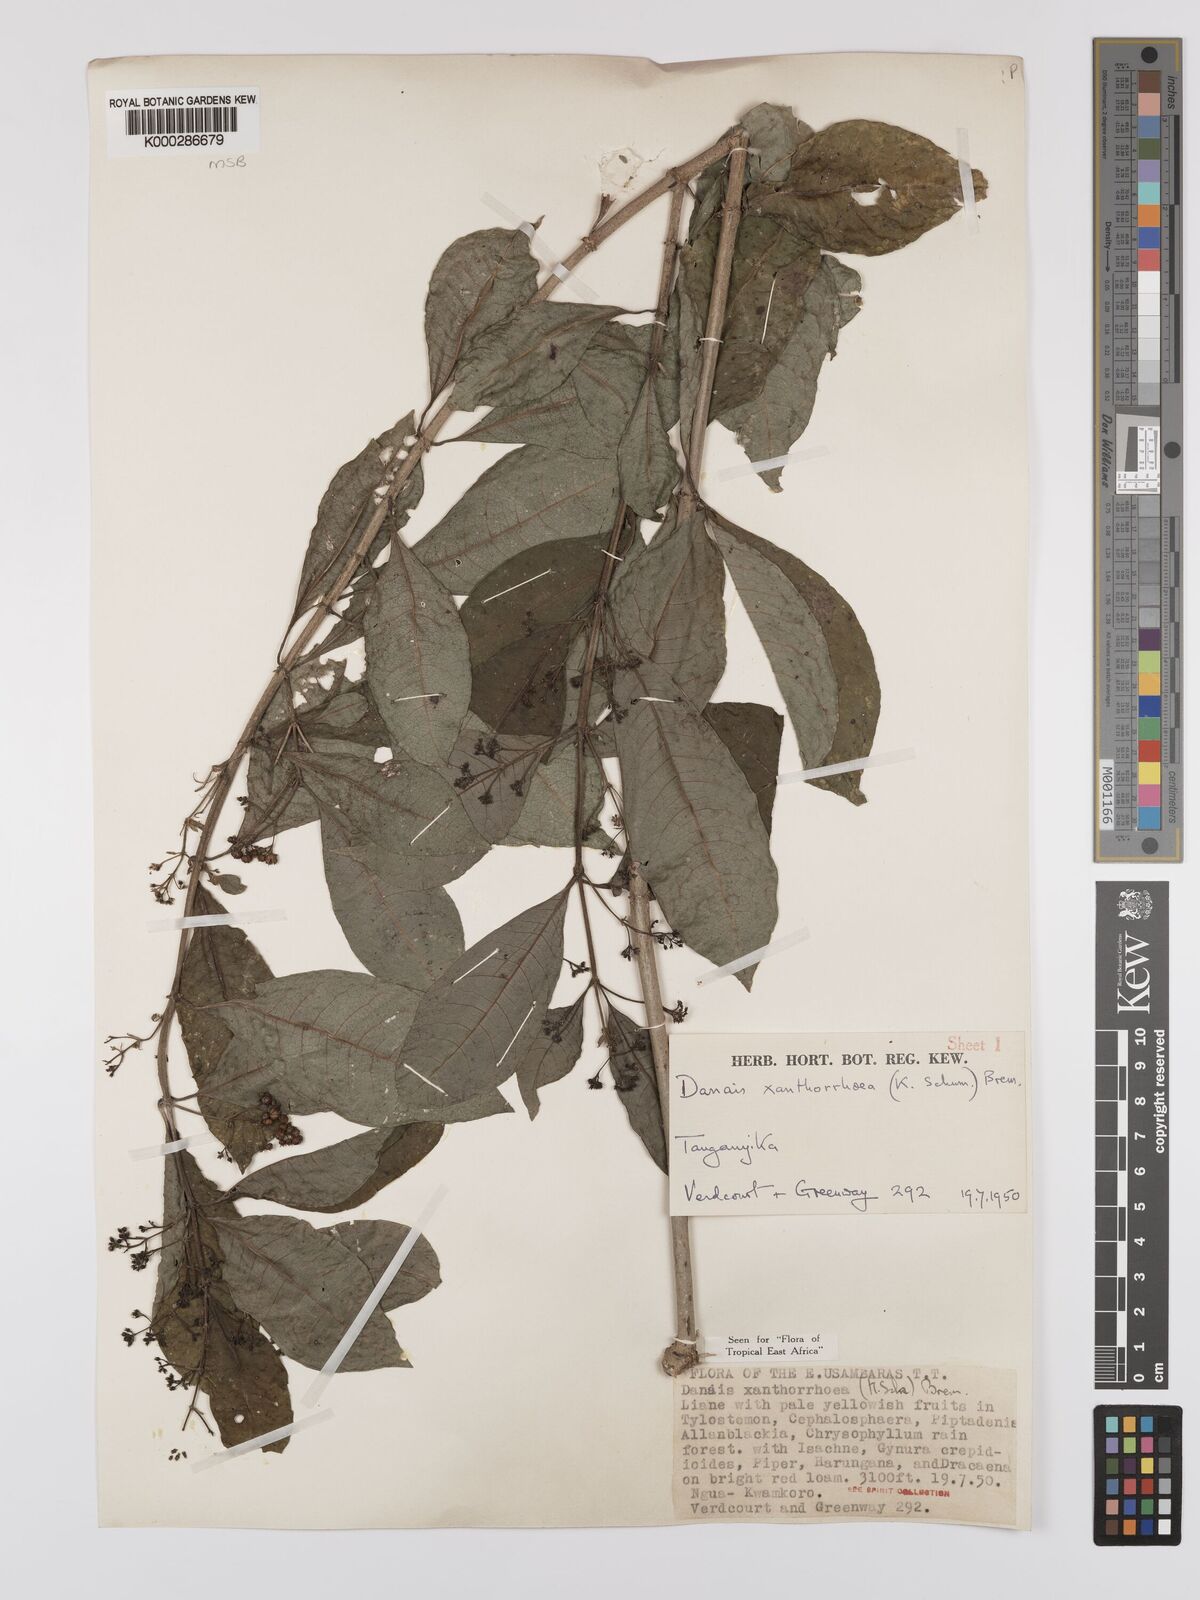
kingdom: Plantae
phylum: Tracheophyta
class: Magnoliopsida
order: Gentianales
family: Rubiaceae
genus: Danais
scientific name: Danais xanthorrhoea
